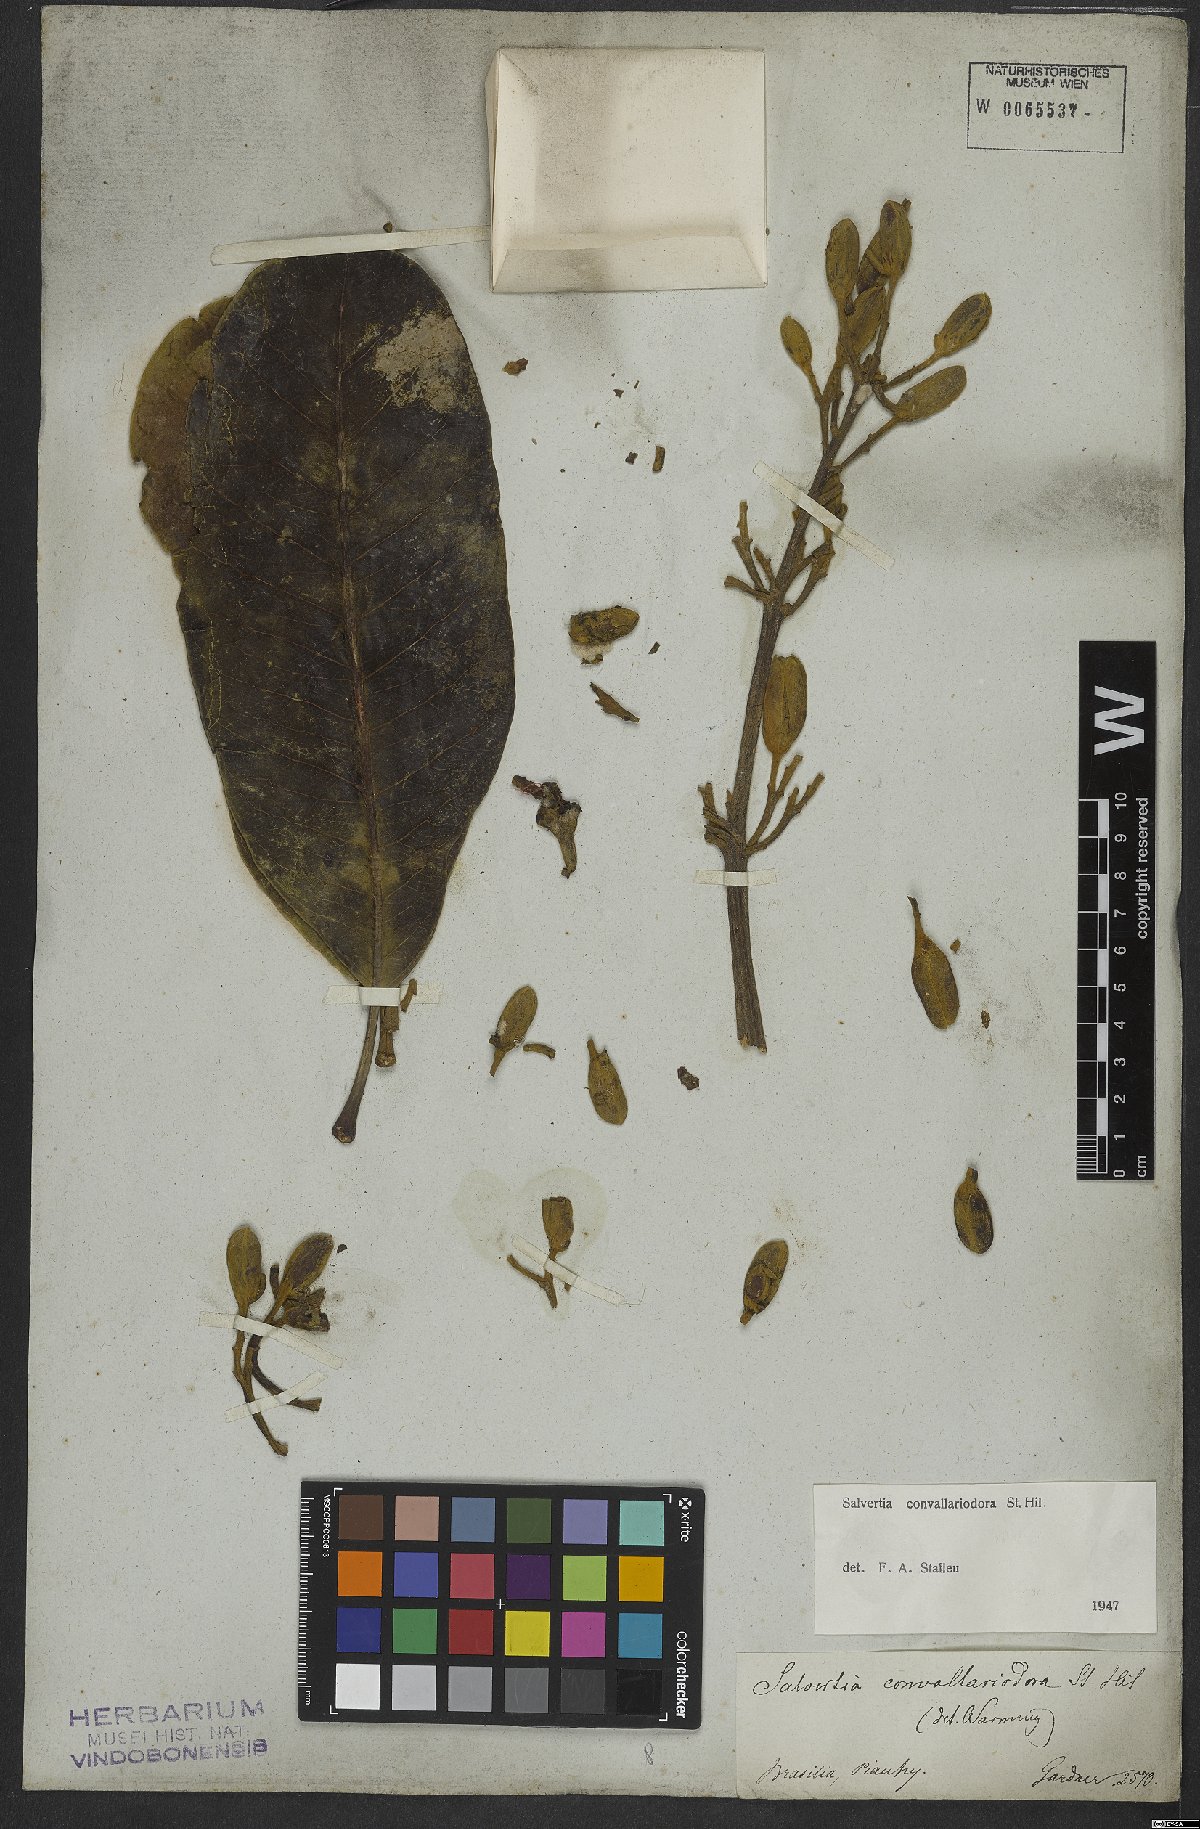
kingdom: Plantae
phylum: Tracheophyta
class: Magnoliopsida
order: Myrtales
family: Vochysiaceae
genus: Salvertia
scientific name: Salvertia convallariodora
